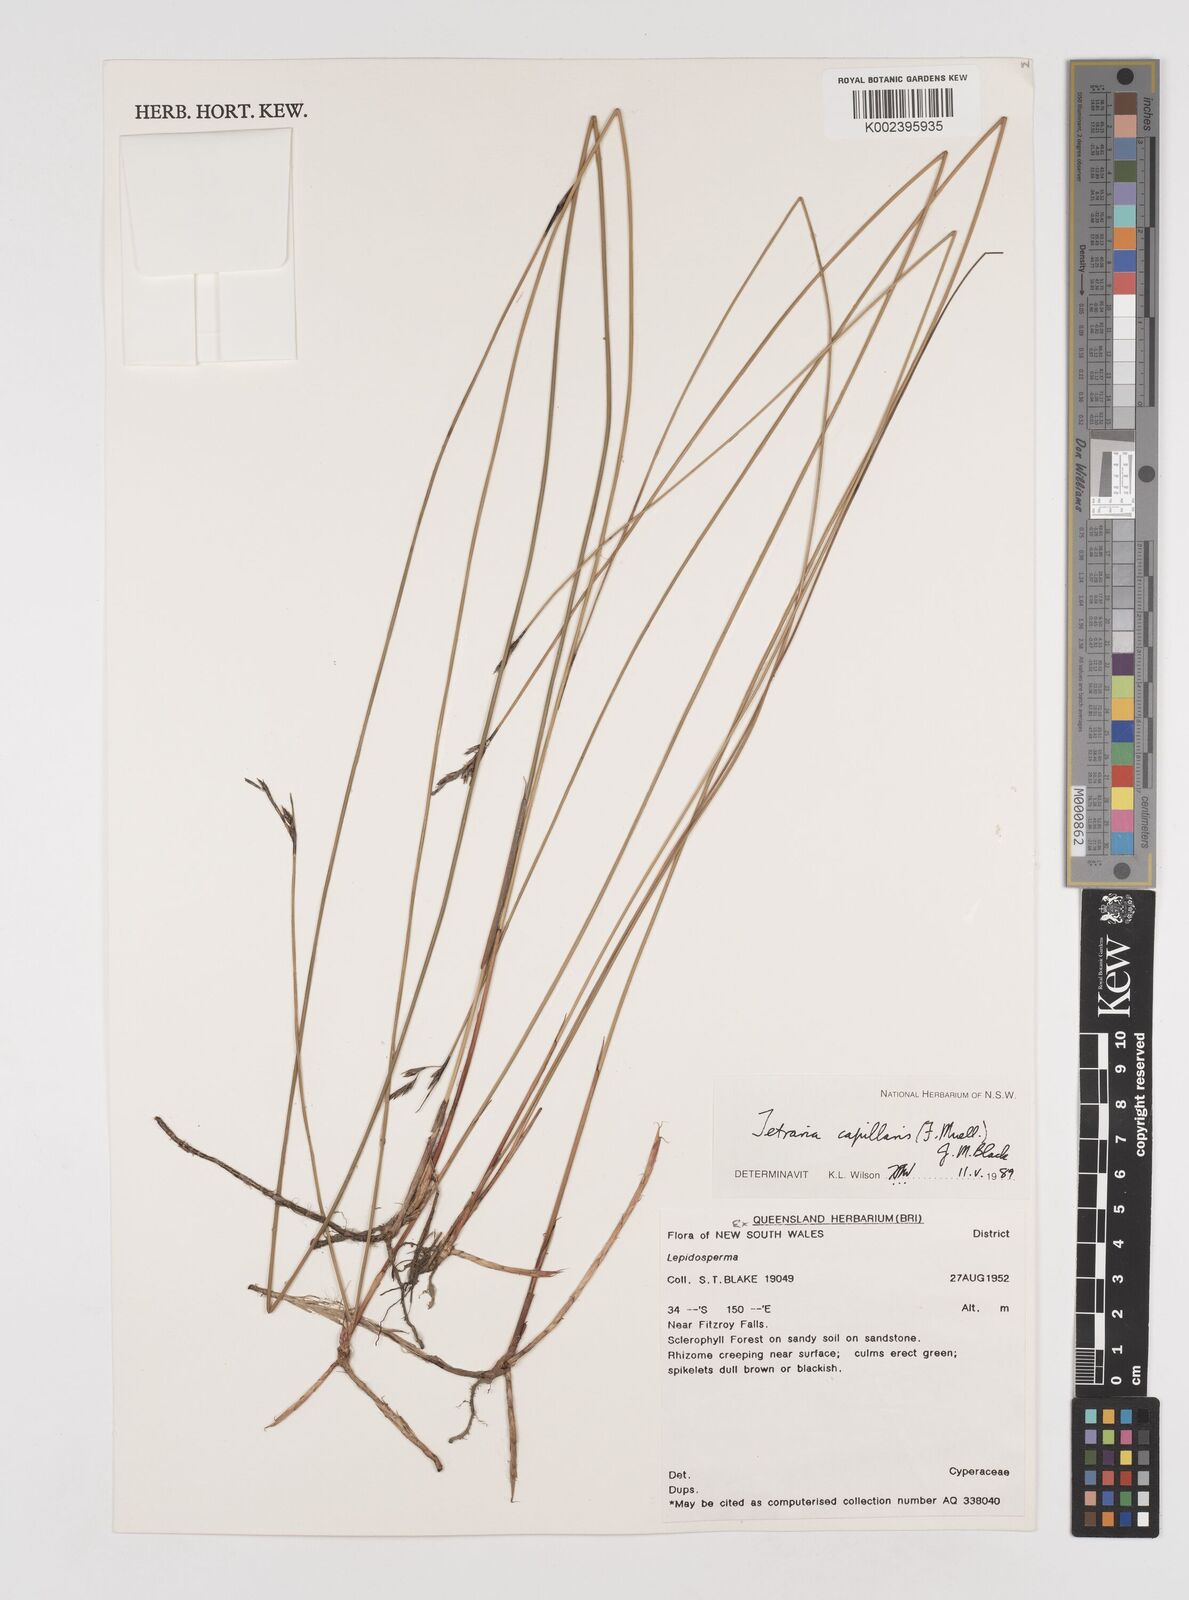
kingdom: Plantae
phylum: Tracheophyta
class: Liliopsida
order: Poales
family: Cyperaceae
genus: Tetraria
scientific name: Tetraria capillaris
